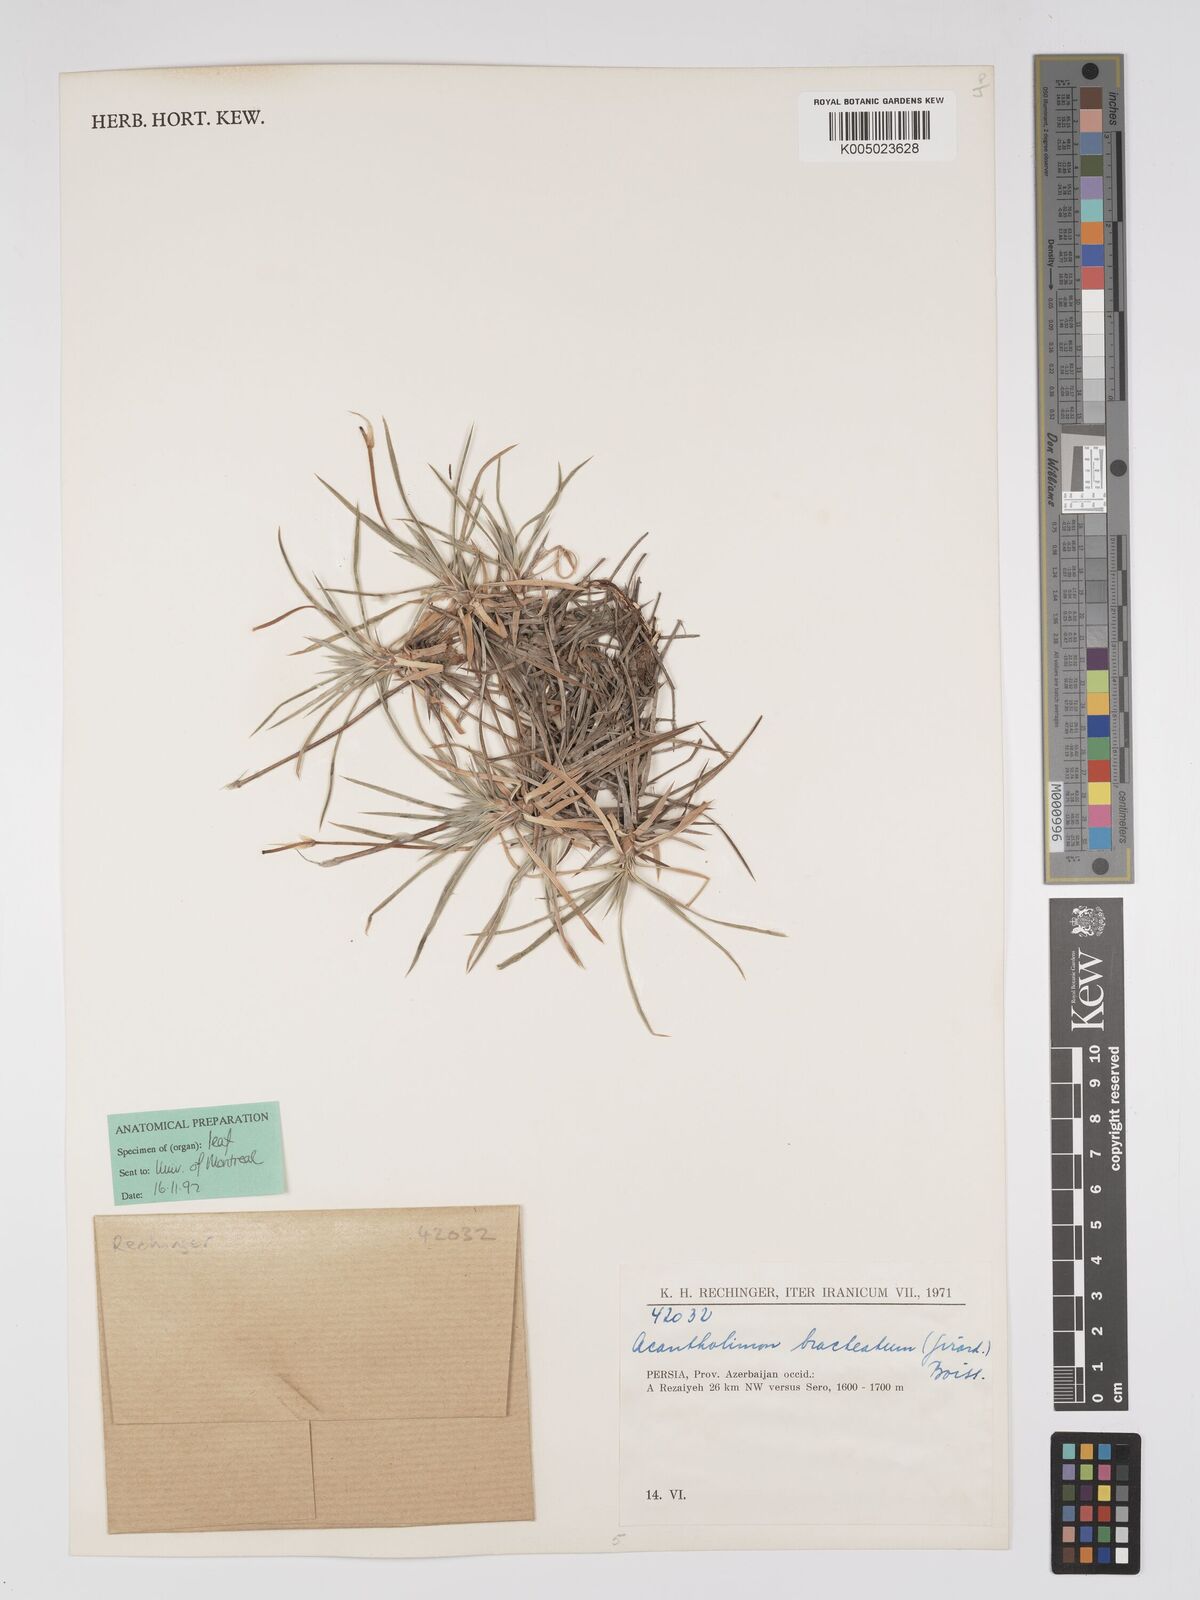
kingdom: Plantae
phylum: Tracheophyta
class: Magnoliopsida
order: Caryophyllales
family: Plumbaginaceae
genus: Acantholimon
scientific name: Acantholimon bracteatum
